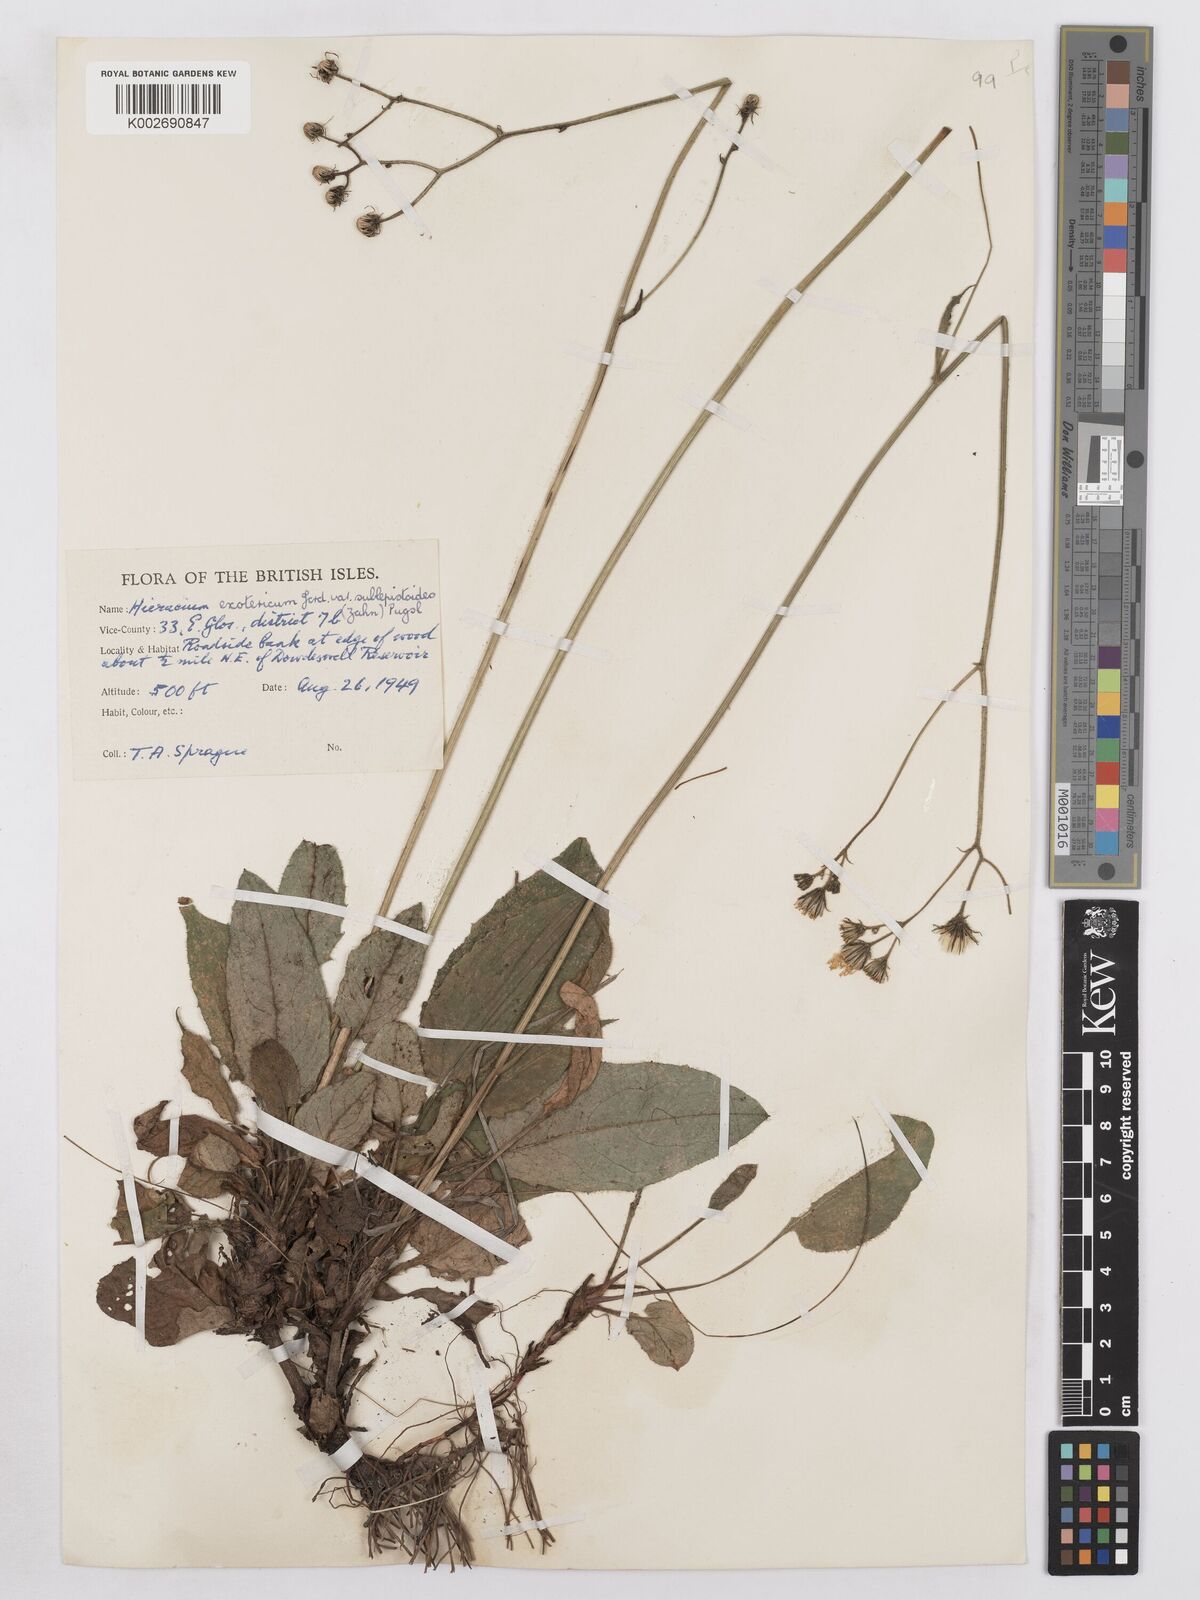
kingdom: Plantae
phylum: Tracheophyta
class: Magnoliopsida
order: Asterales
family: Asteraceae
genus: Hieracium
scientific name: Hieracium murorum
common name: Wall hawkweed
